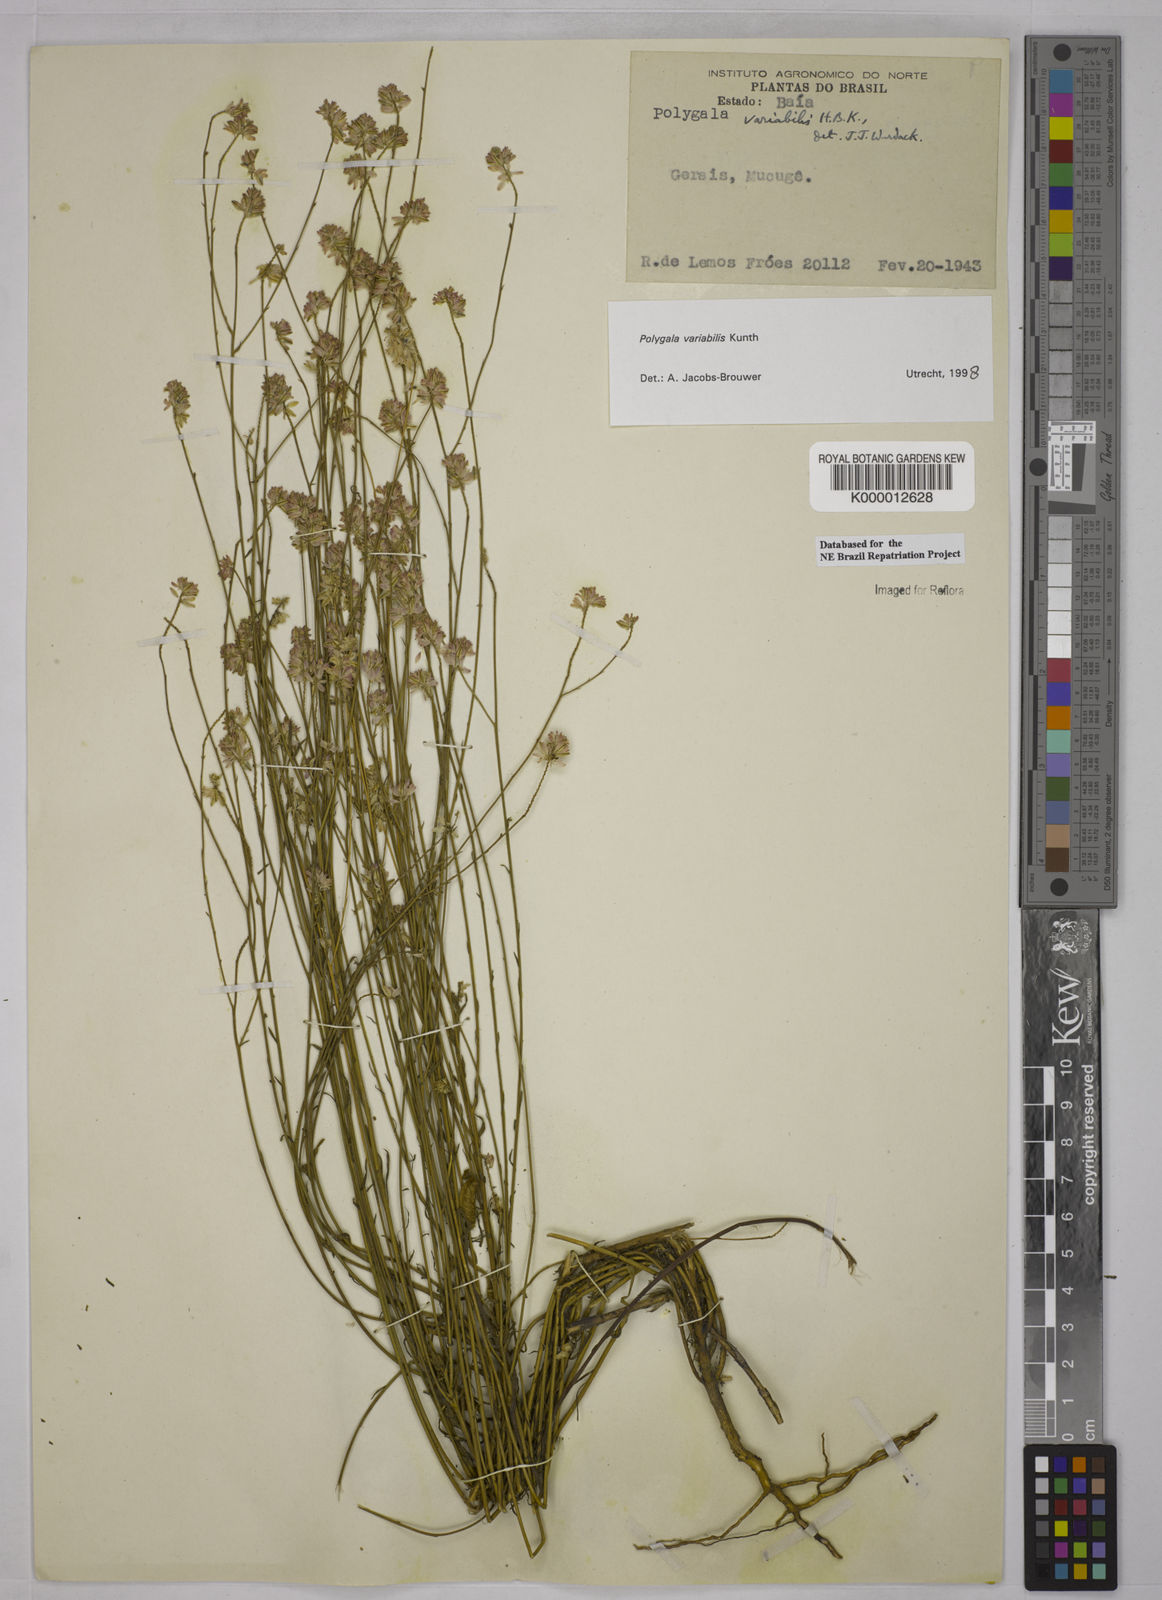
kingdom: Plantae
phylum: Tracheophyta
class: Magnoliopsida
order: Fabales
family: Polygalaceae
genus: Polygala
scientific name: Polygala trichosperma
